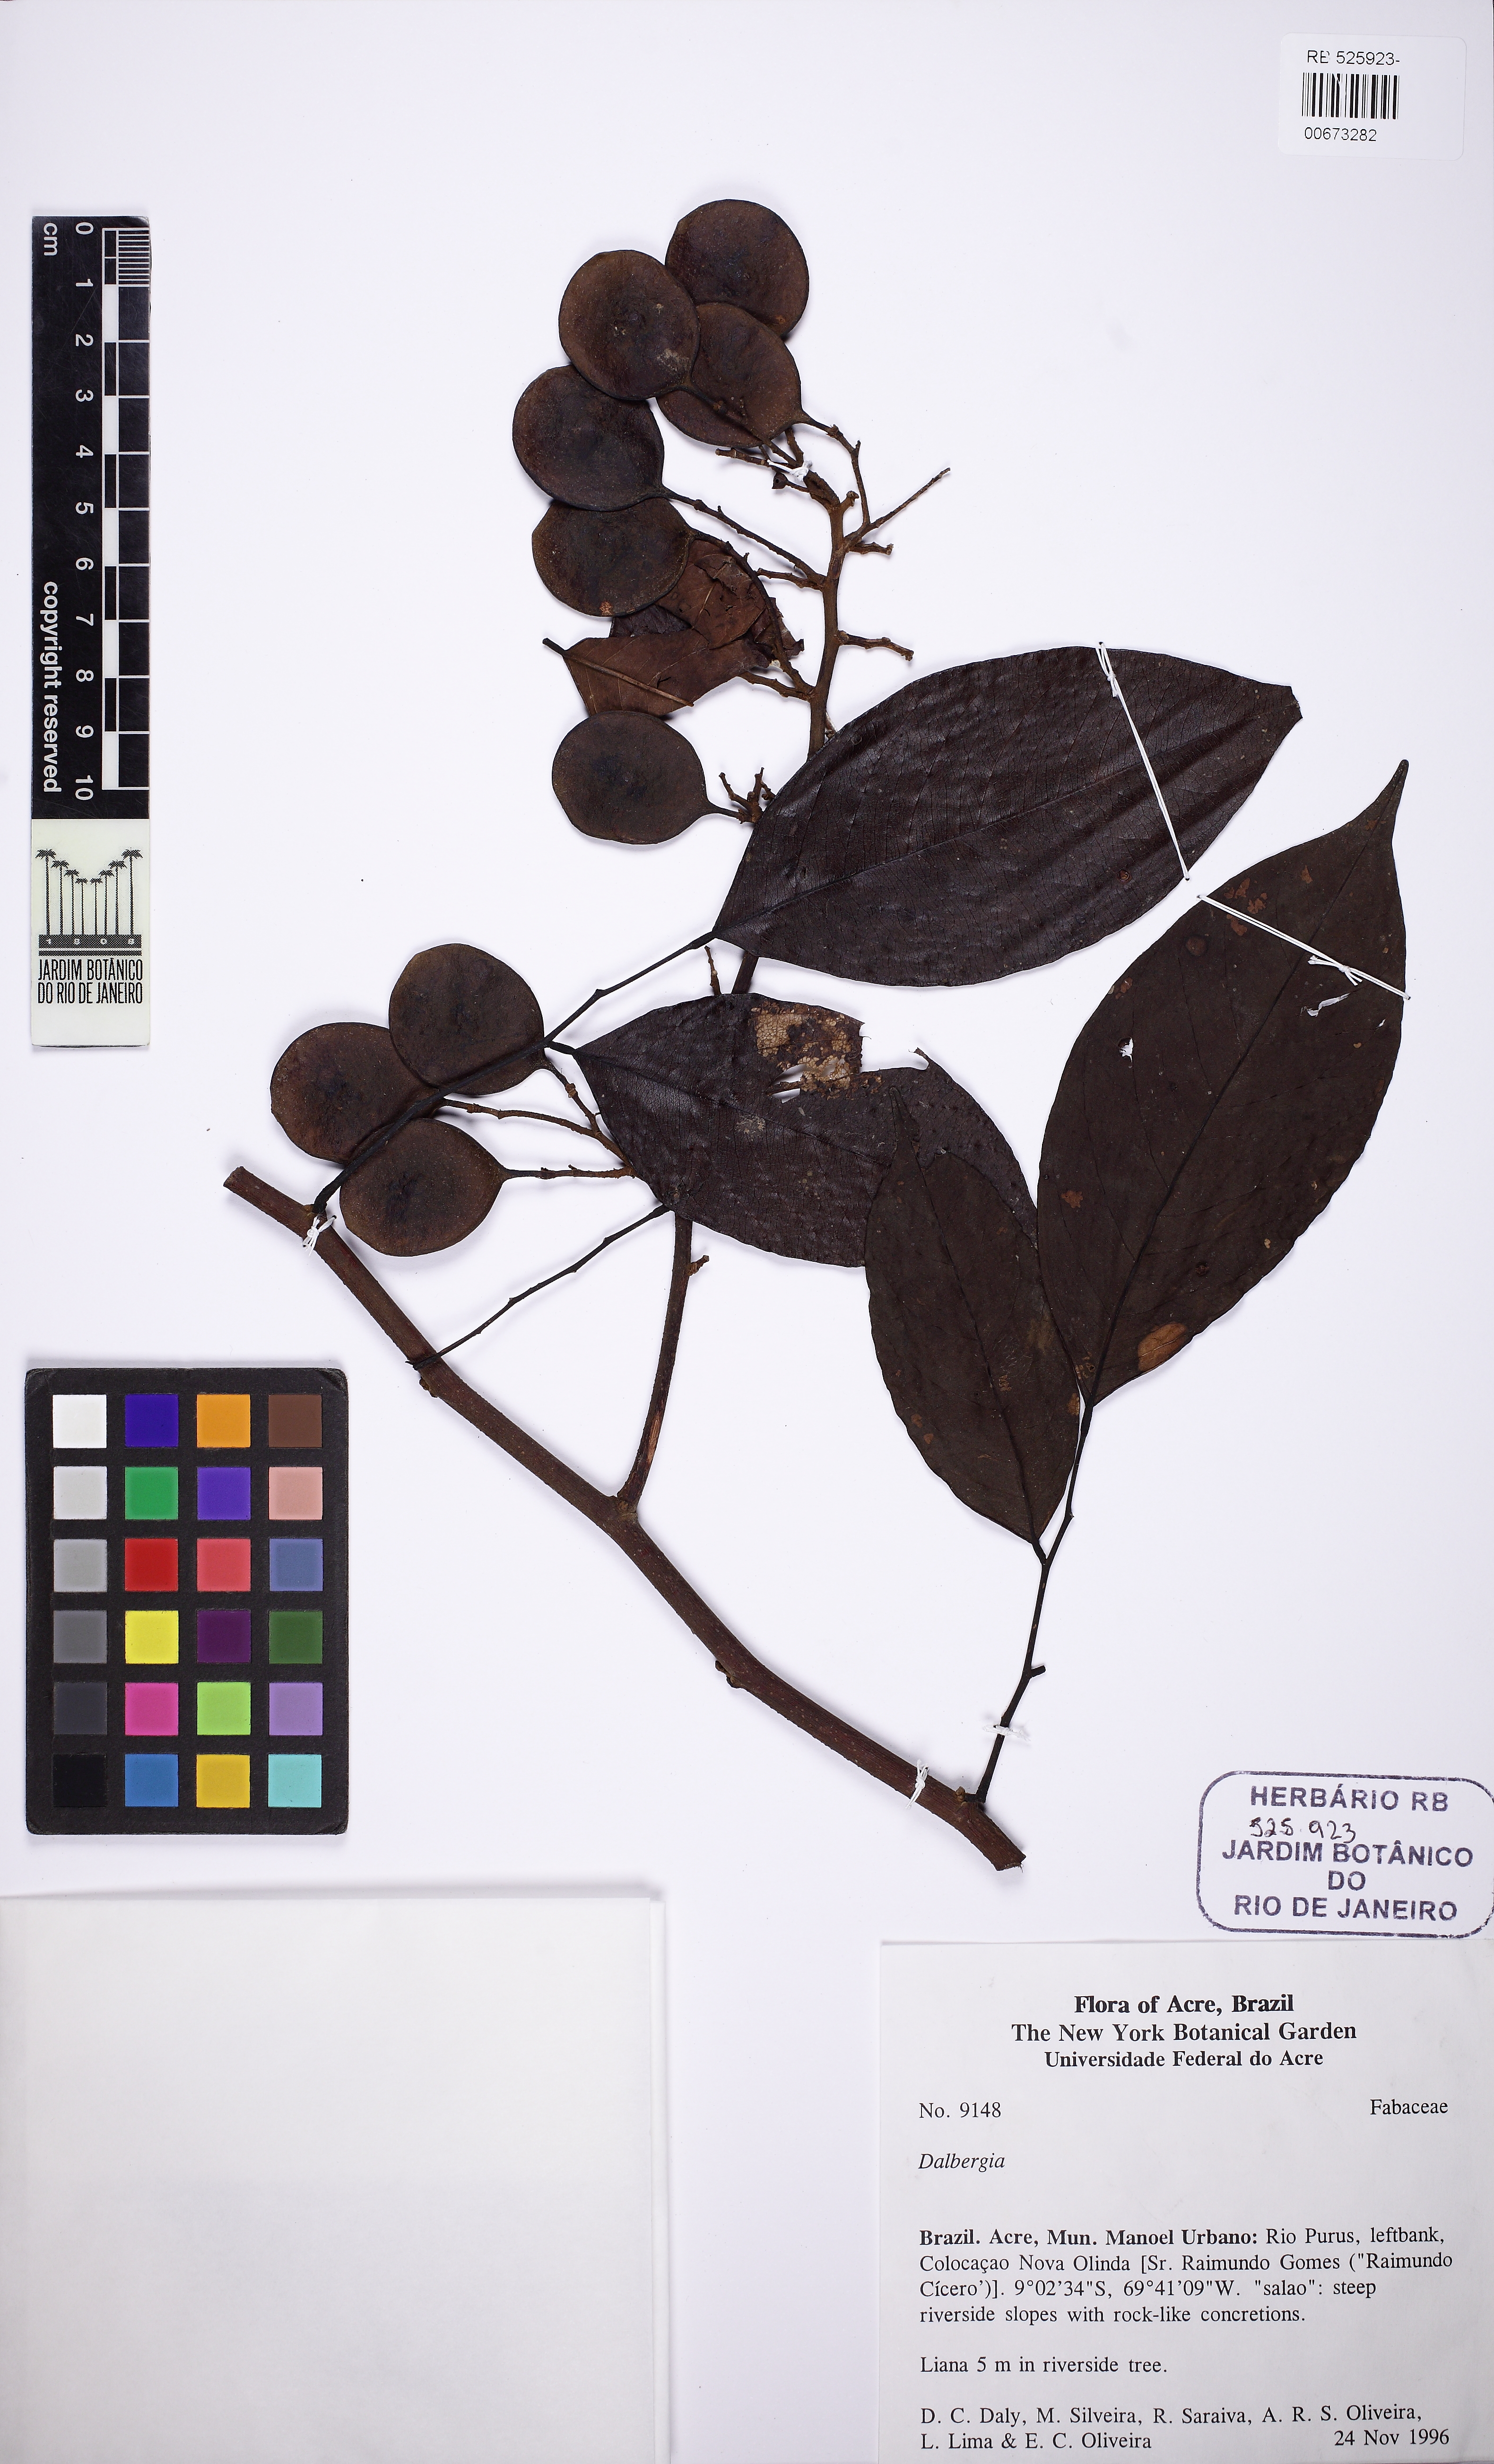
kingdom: Plantae
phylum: Tracheophyta
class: Magnoliopsida
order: Fabales
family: Fabaceae
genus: Dalbergia
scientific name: Dalbergia
